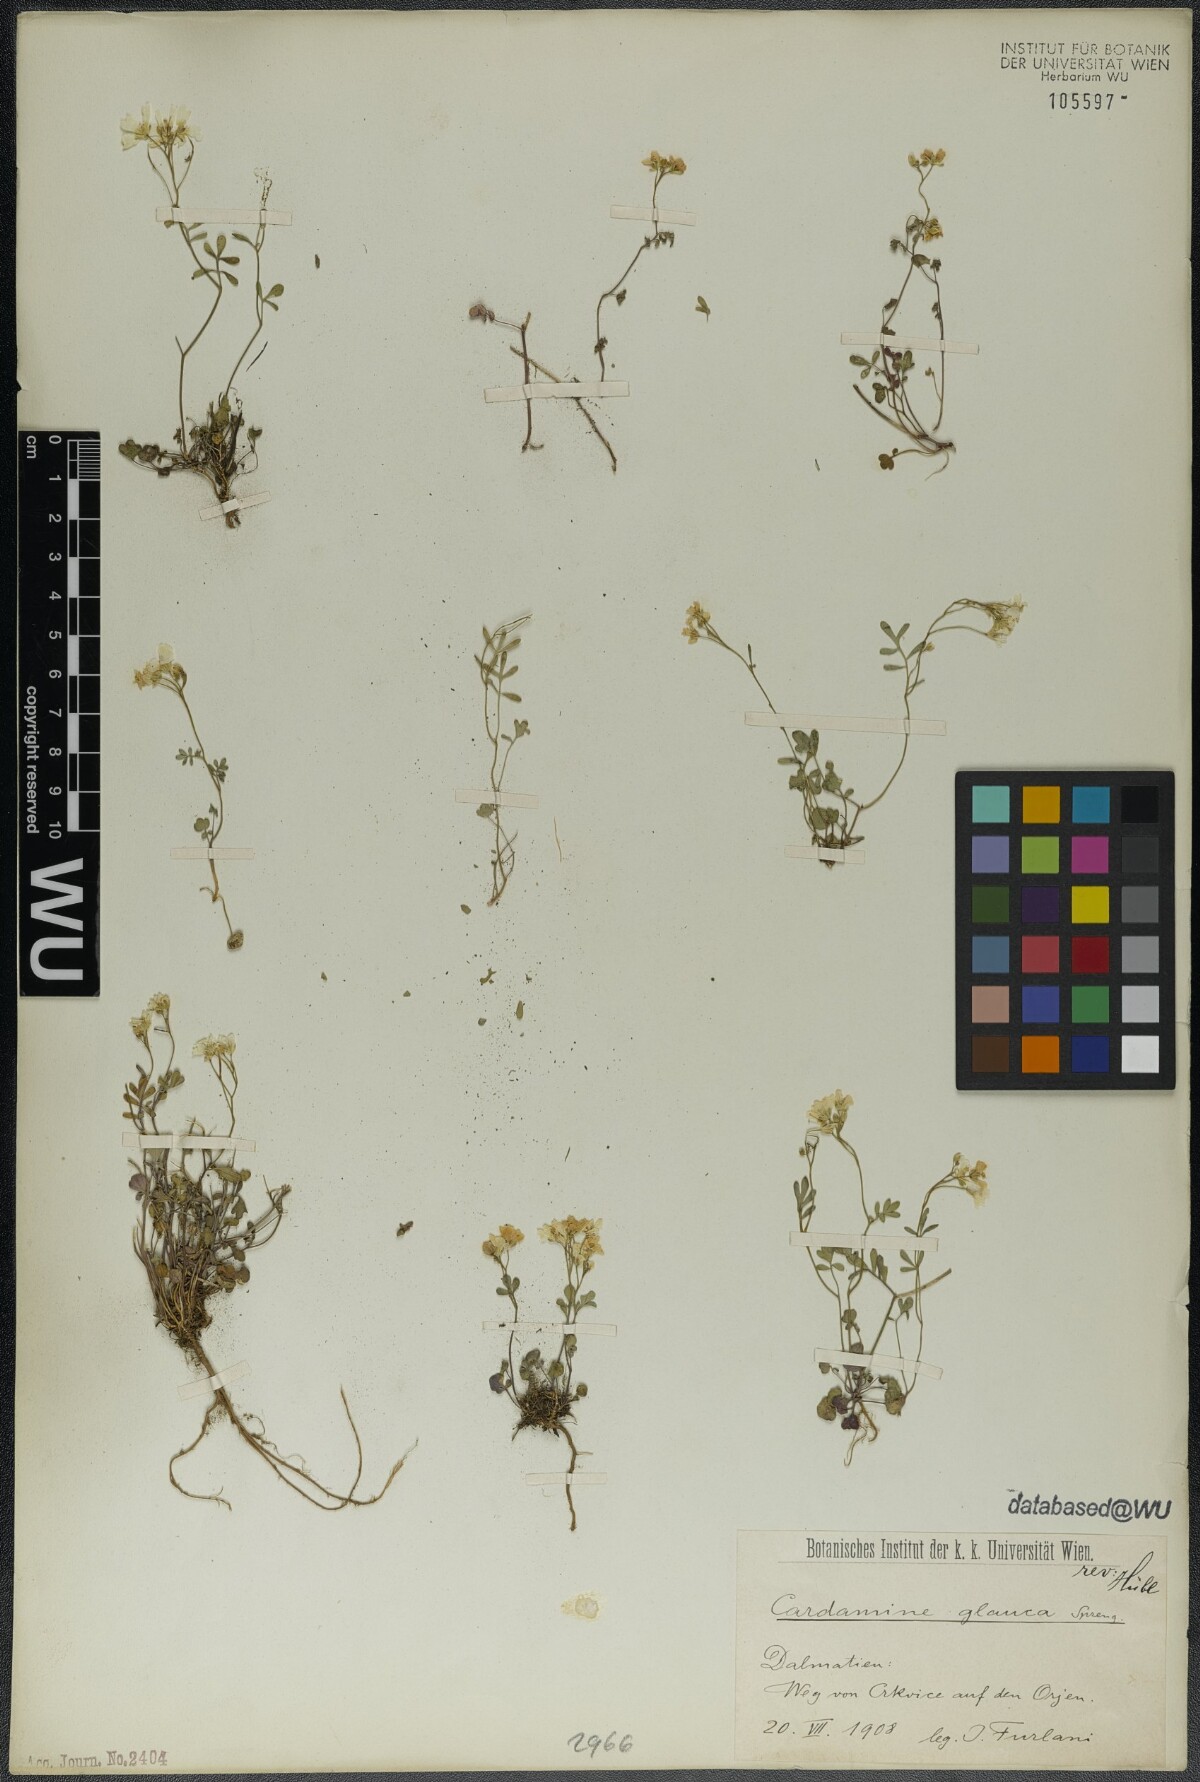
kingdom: Plantae
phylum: Tracheophyta
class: Magnoliopsida
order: Brassicales
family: Brassicaceae
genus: Cardamine
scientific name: Cardamine glauca
